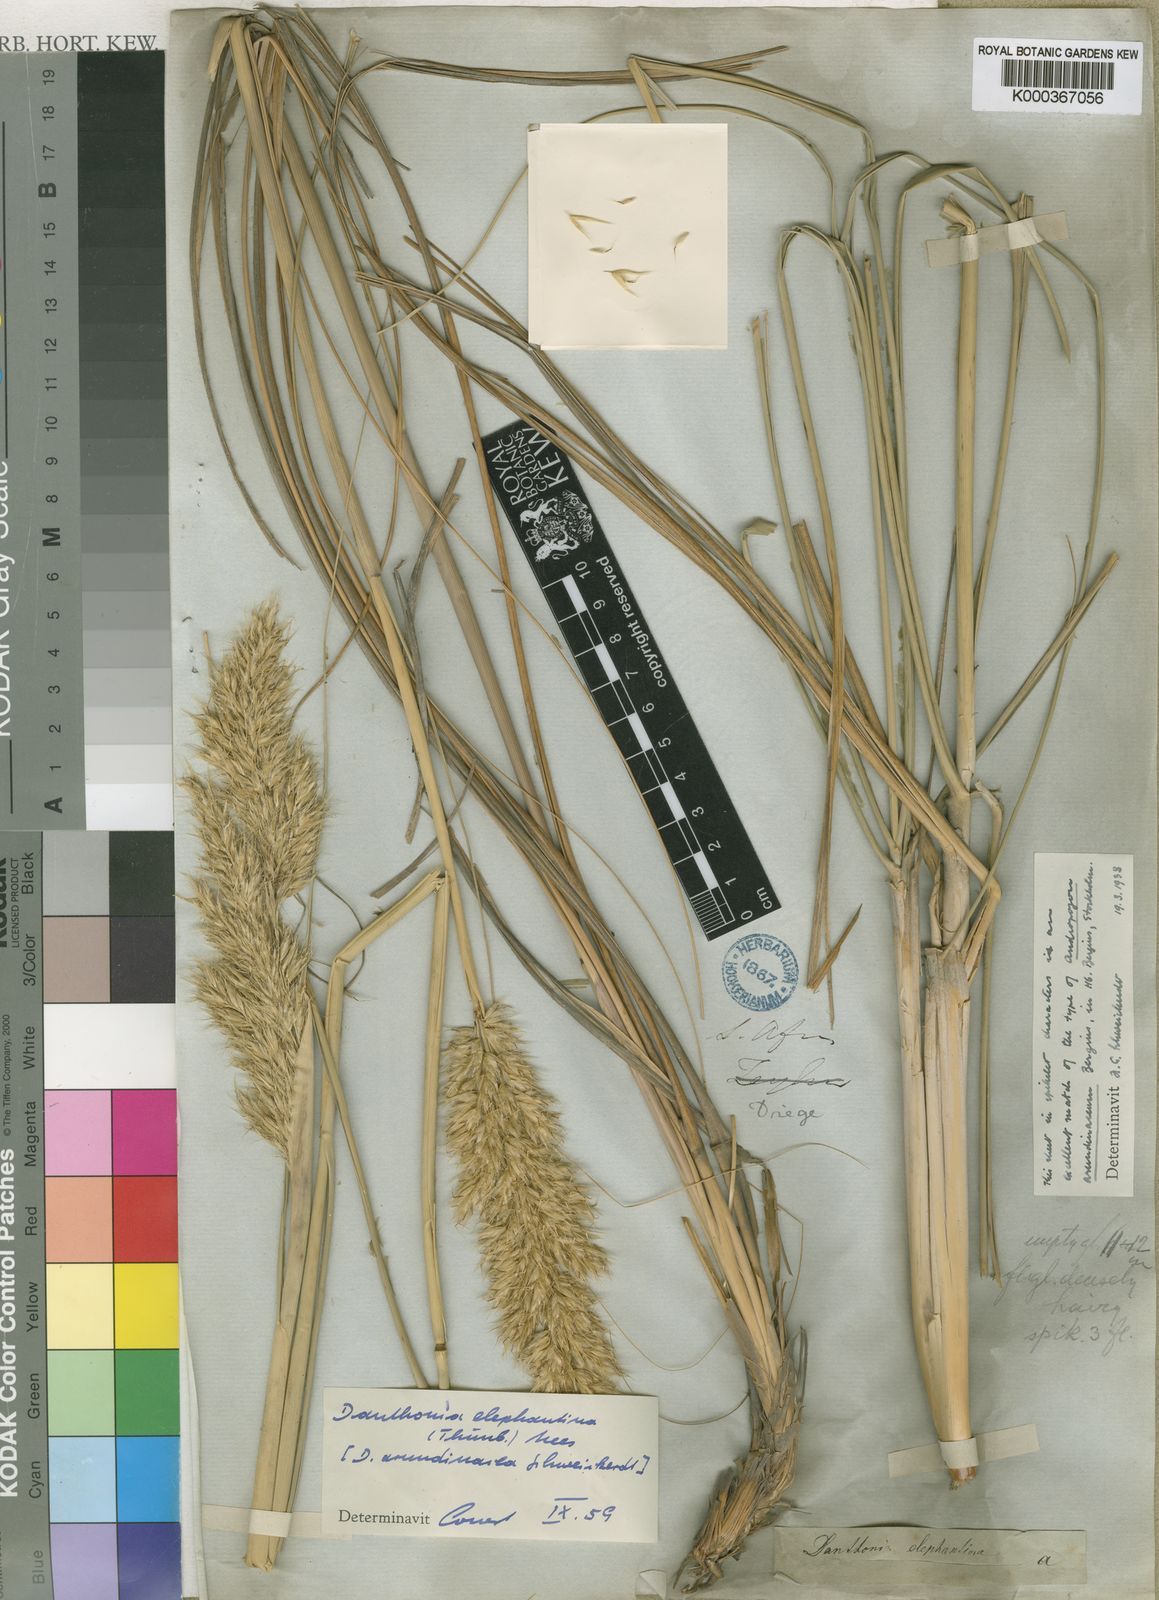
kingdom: Plantae
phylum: Tracheophyta
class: Liliopsida
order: Poales
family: Poaceae
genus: Rytidosperma
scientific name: Rytidosperma
